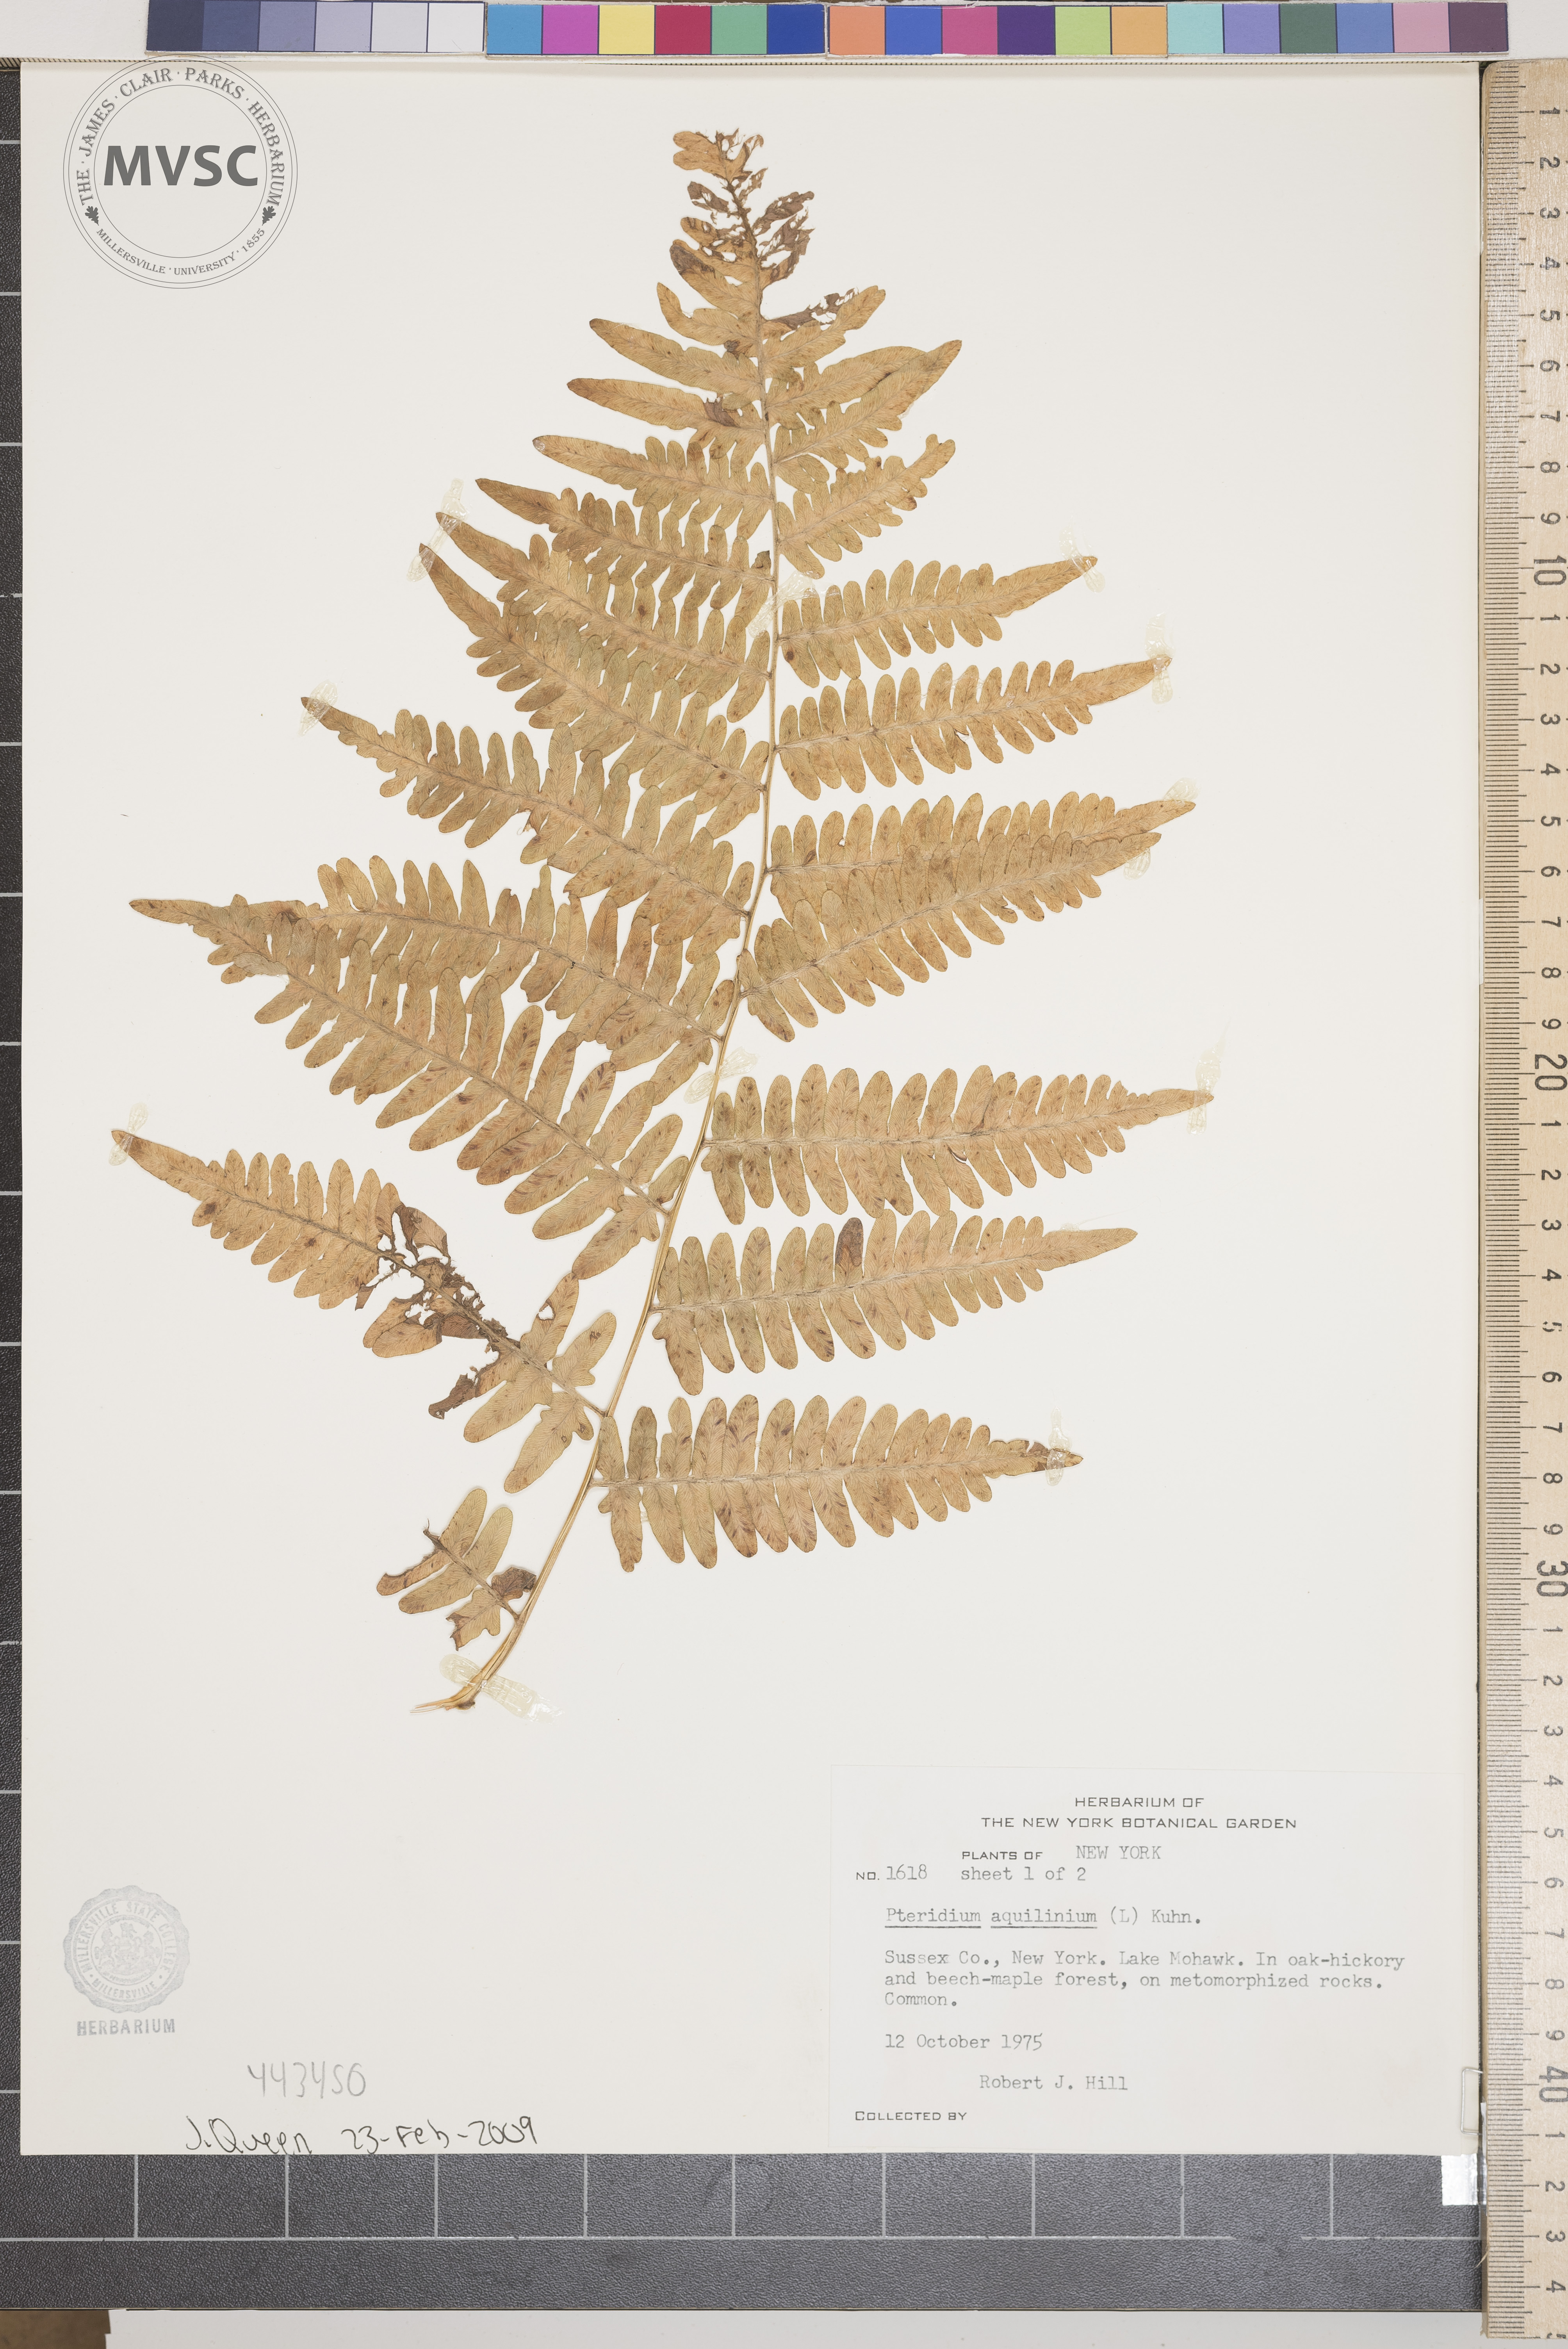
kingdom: Plantae
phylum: Tracheophyta
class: Polypodiopsida
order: Polypodiales
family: Dennstaedtiaceae
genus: Pteridium
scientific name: Pteridium aquilinum
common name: Bracken
